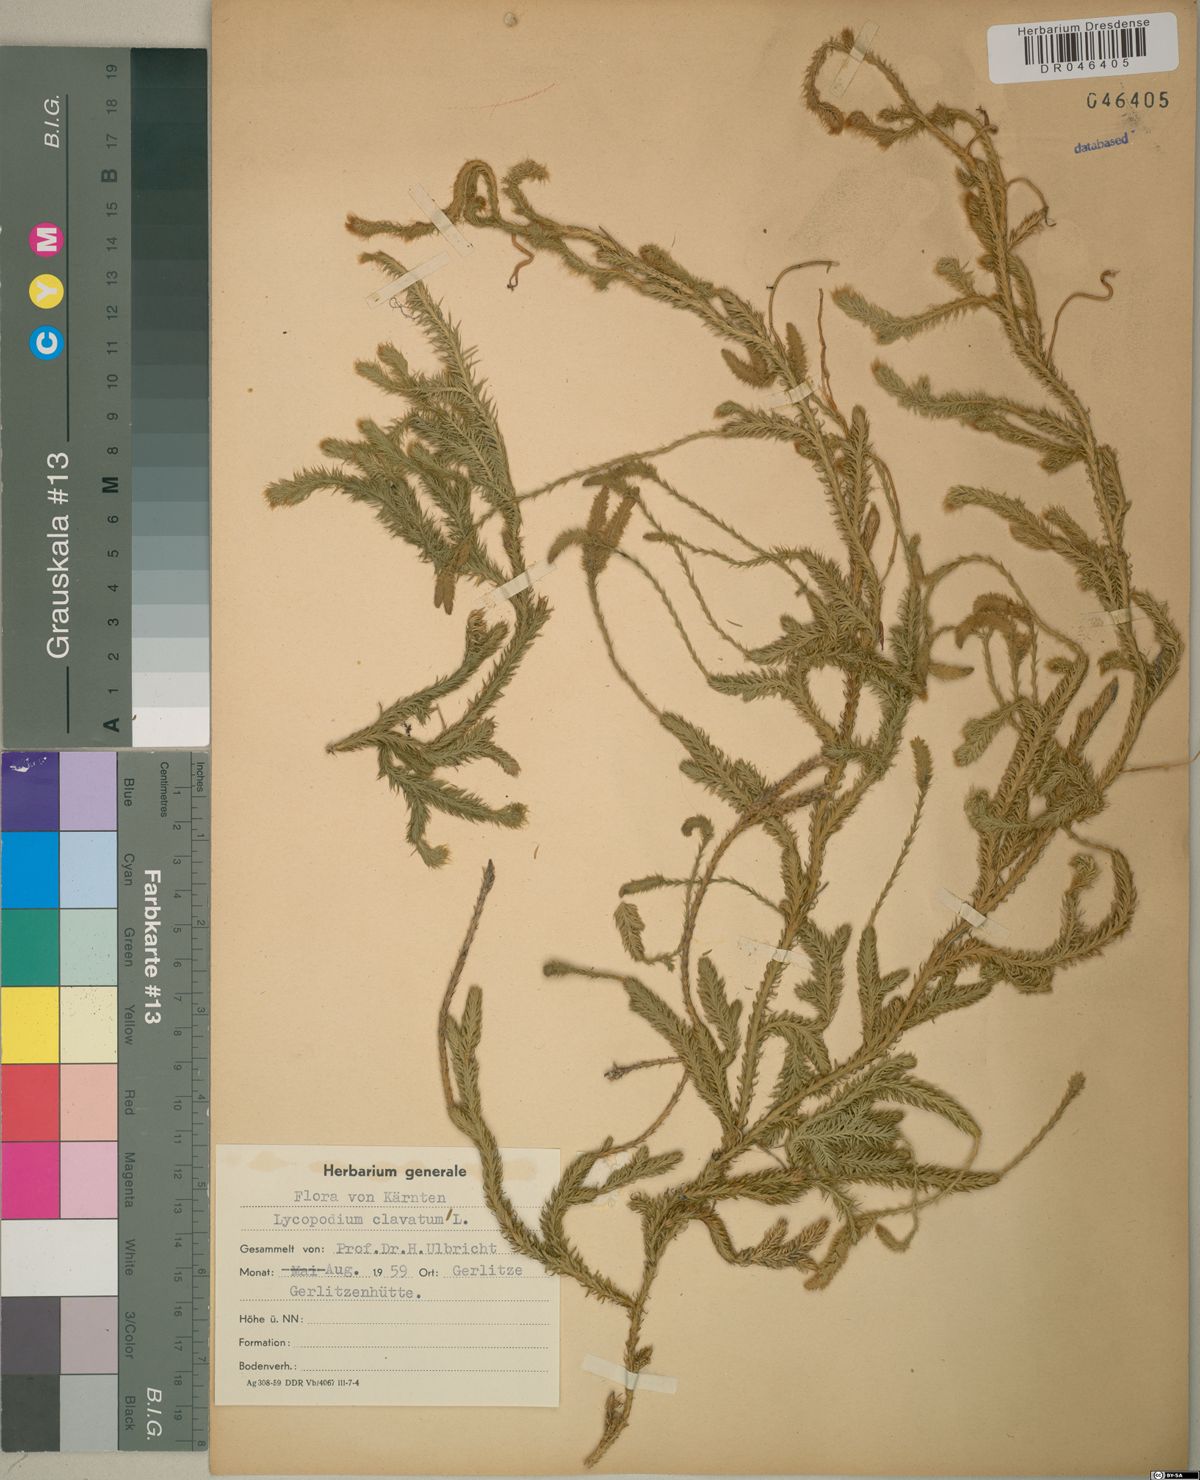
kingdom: Plantae
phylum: Tracheophyta
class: Lycopodiopsida
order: Lycopodiales
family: Lycopodiaceae
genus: Lycopodium
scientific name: Lycopodium clavatum
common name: Stag's-horn clubmoss
